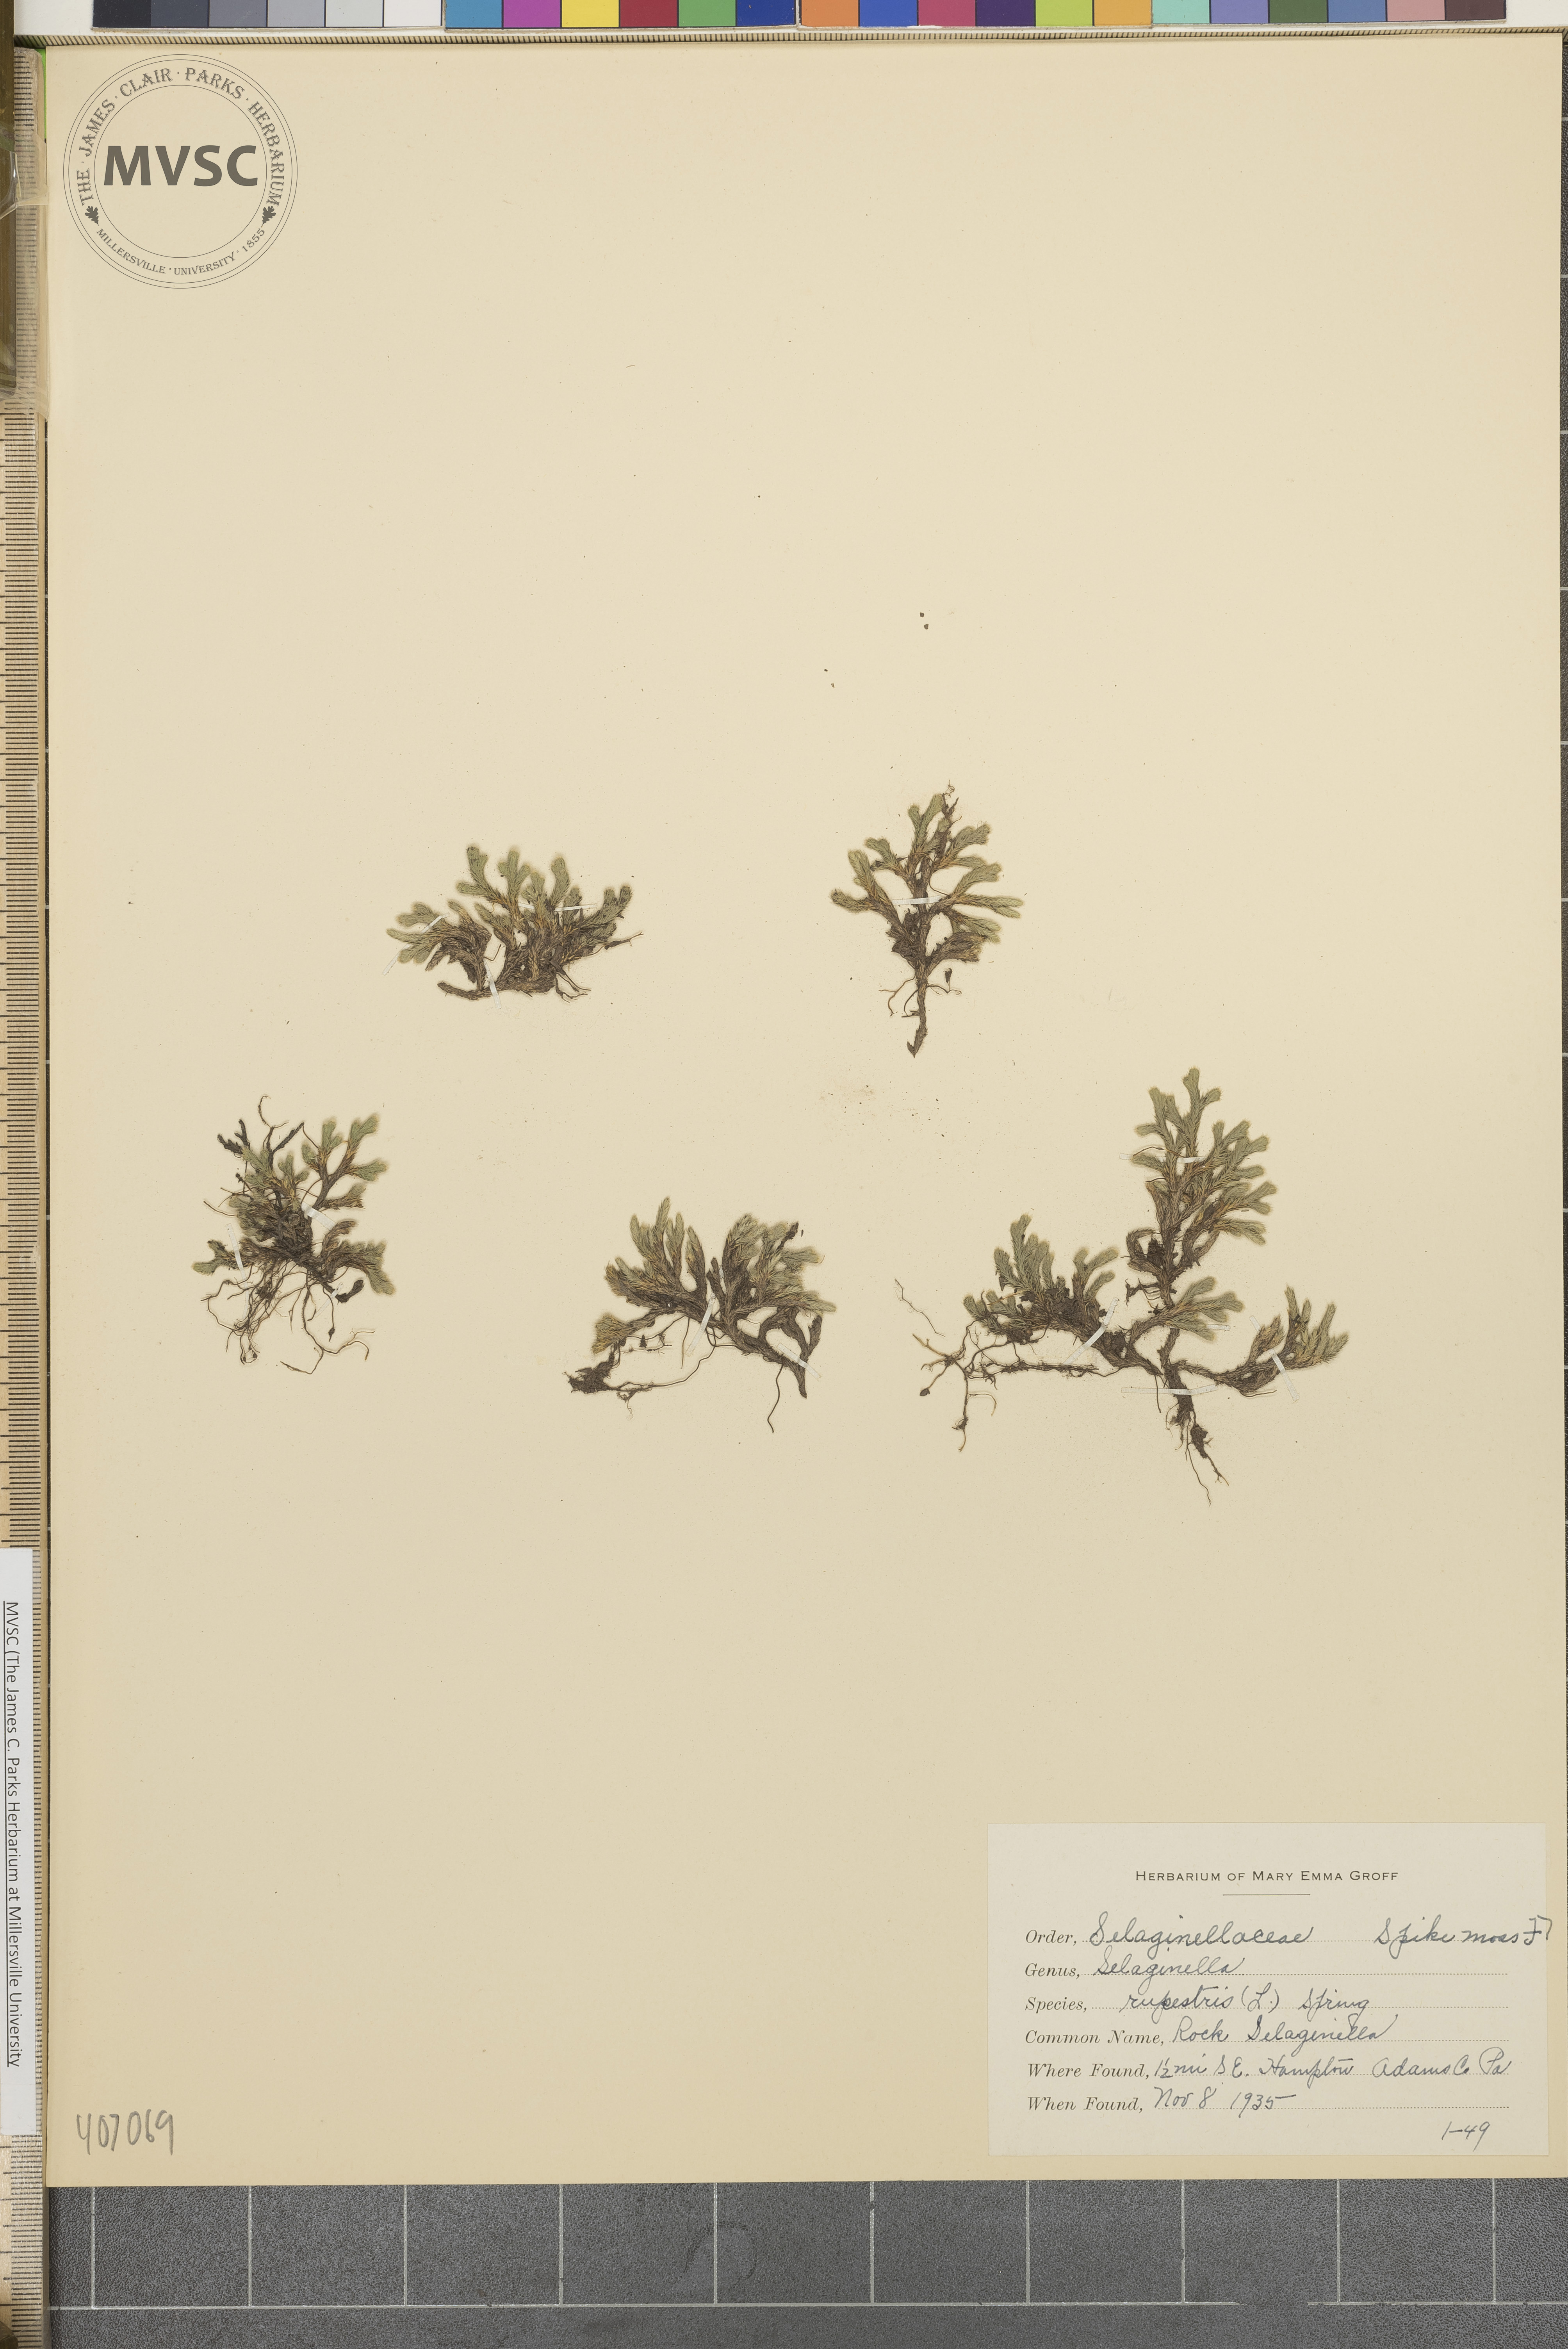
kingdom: Plantae
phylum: Tracheophyta
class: Lycopodiopsida
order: Selaginellales
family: Selaginellaceae
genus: Selaginella
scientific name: Selaginella rupestris
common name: Dwarf spikemoss
